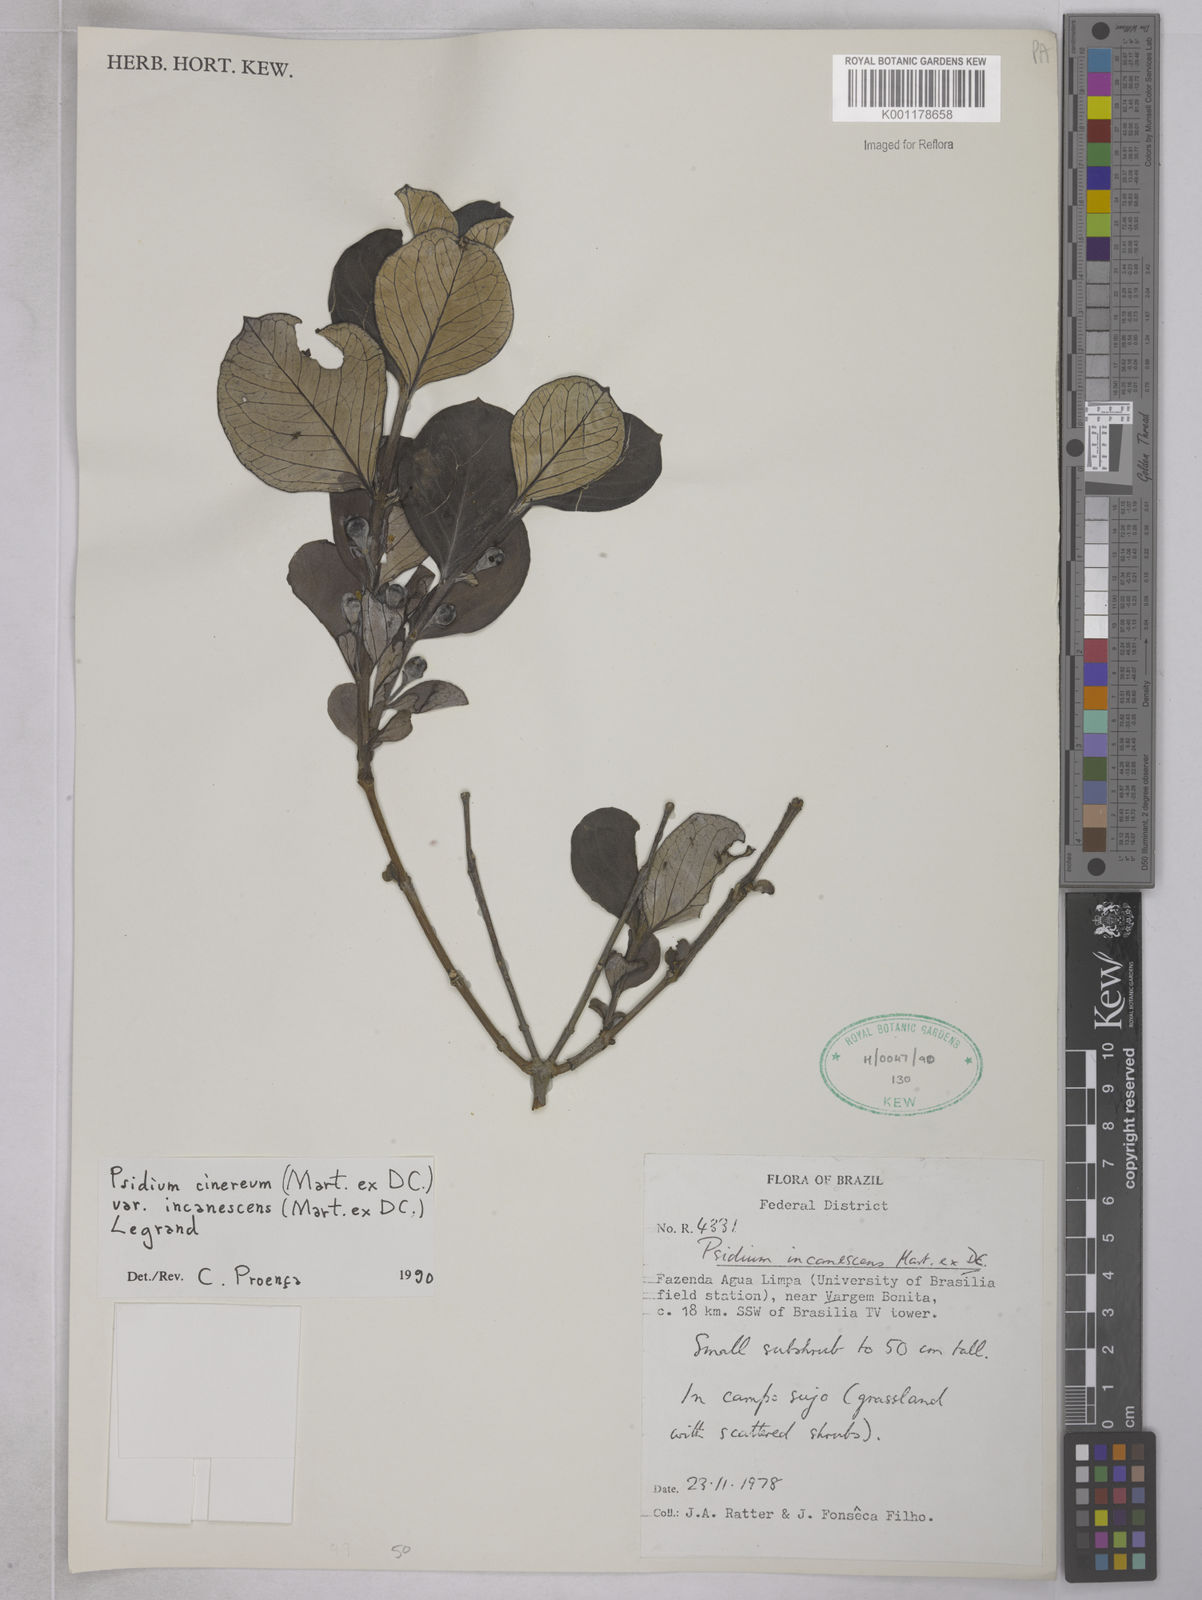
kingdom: Plantae
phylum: Tracheophyta
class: Magnoliopsida
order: Myrtales
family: Myrtaceae
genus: Psidium
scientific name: Psidium grandifolium
